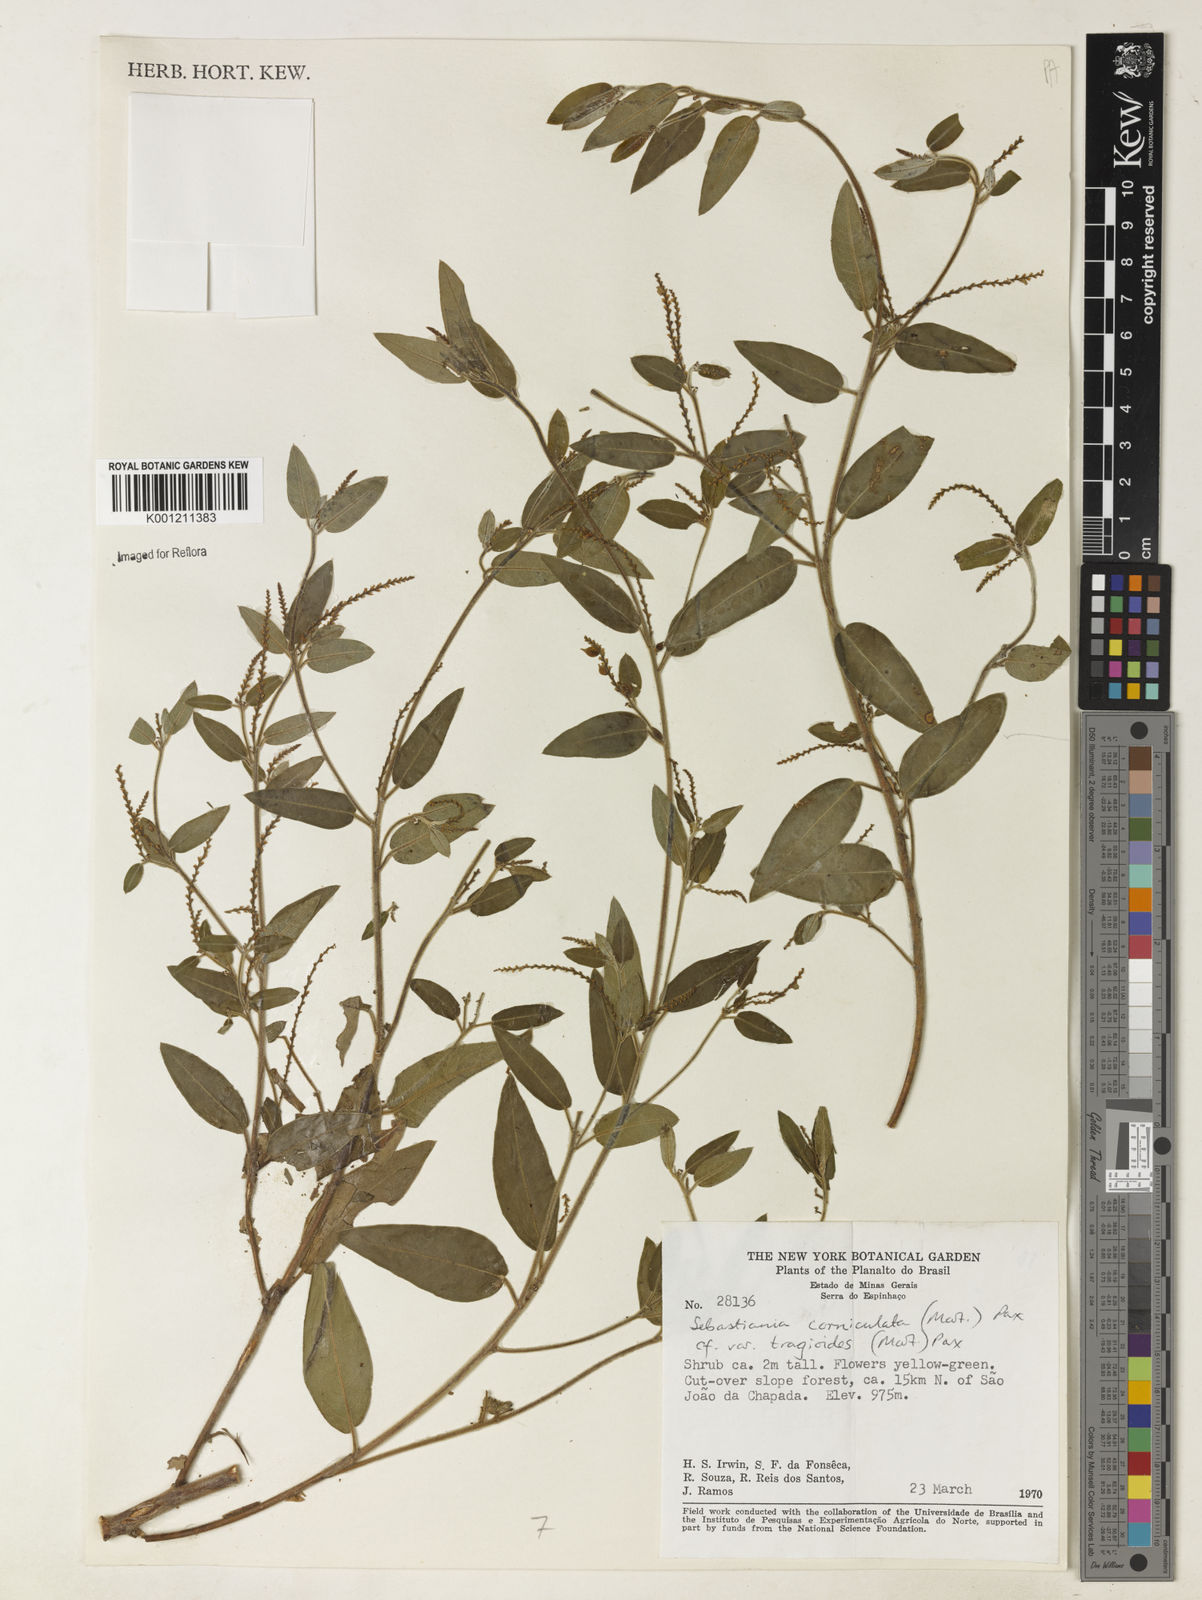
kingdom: Plantae
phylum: Tracheophyta
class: Magnoliopsida
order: Malpighiales
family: Euphorbiaceae
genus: Microstachys
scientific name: Microstachys corniculata
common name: Hato tejas
